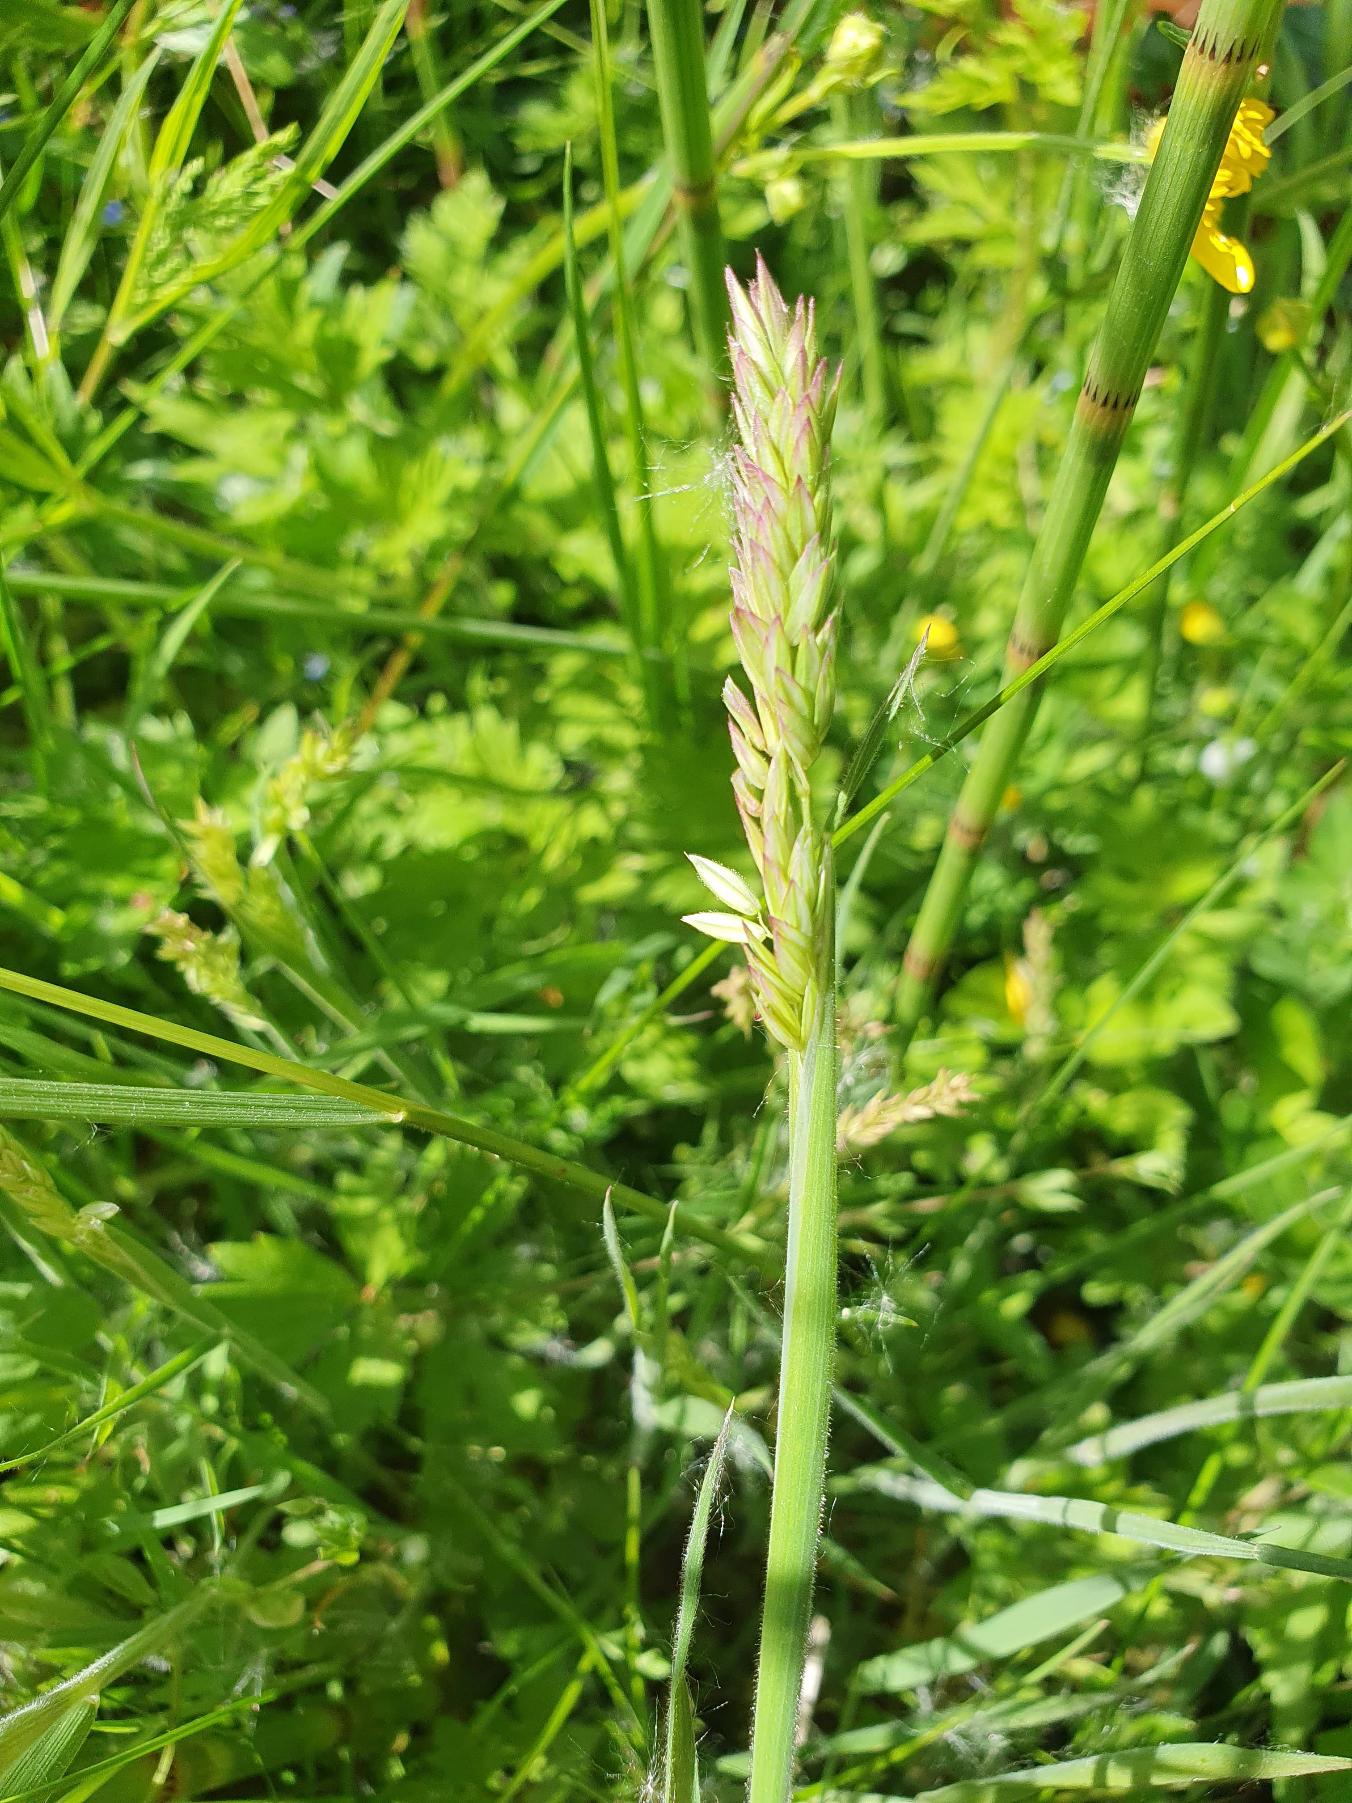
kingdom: Plantae
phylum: Tracheophyta
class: Liliopsida
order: Poales
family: Poaceae
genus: Holcus
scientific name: Holcus lanatus
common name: Fløjlsgræs
